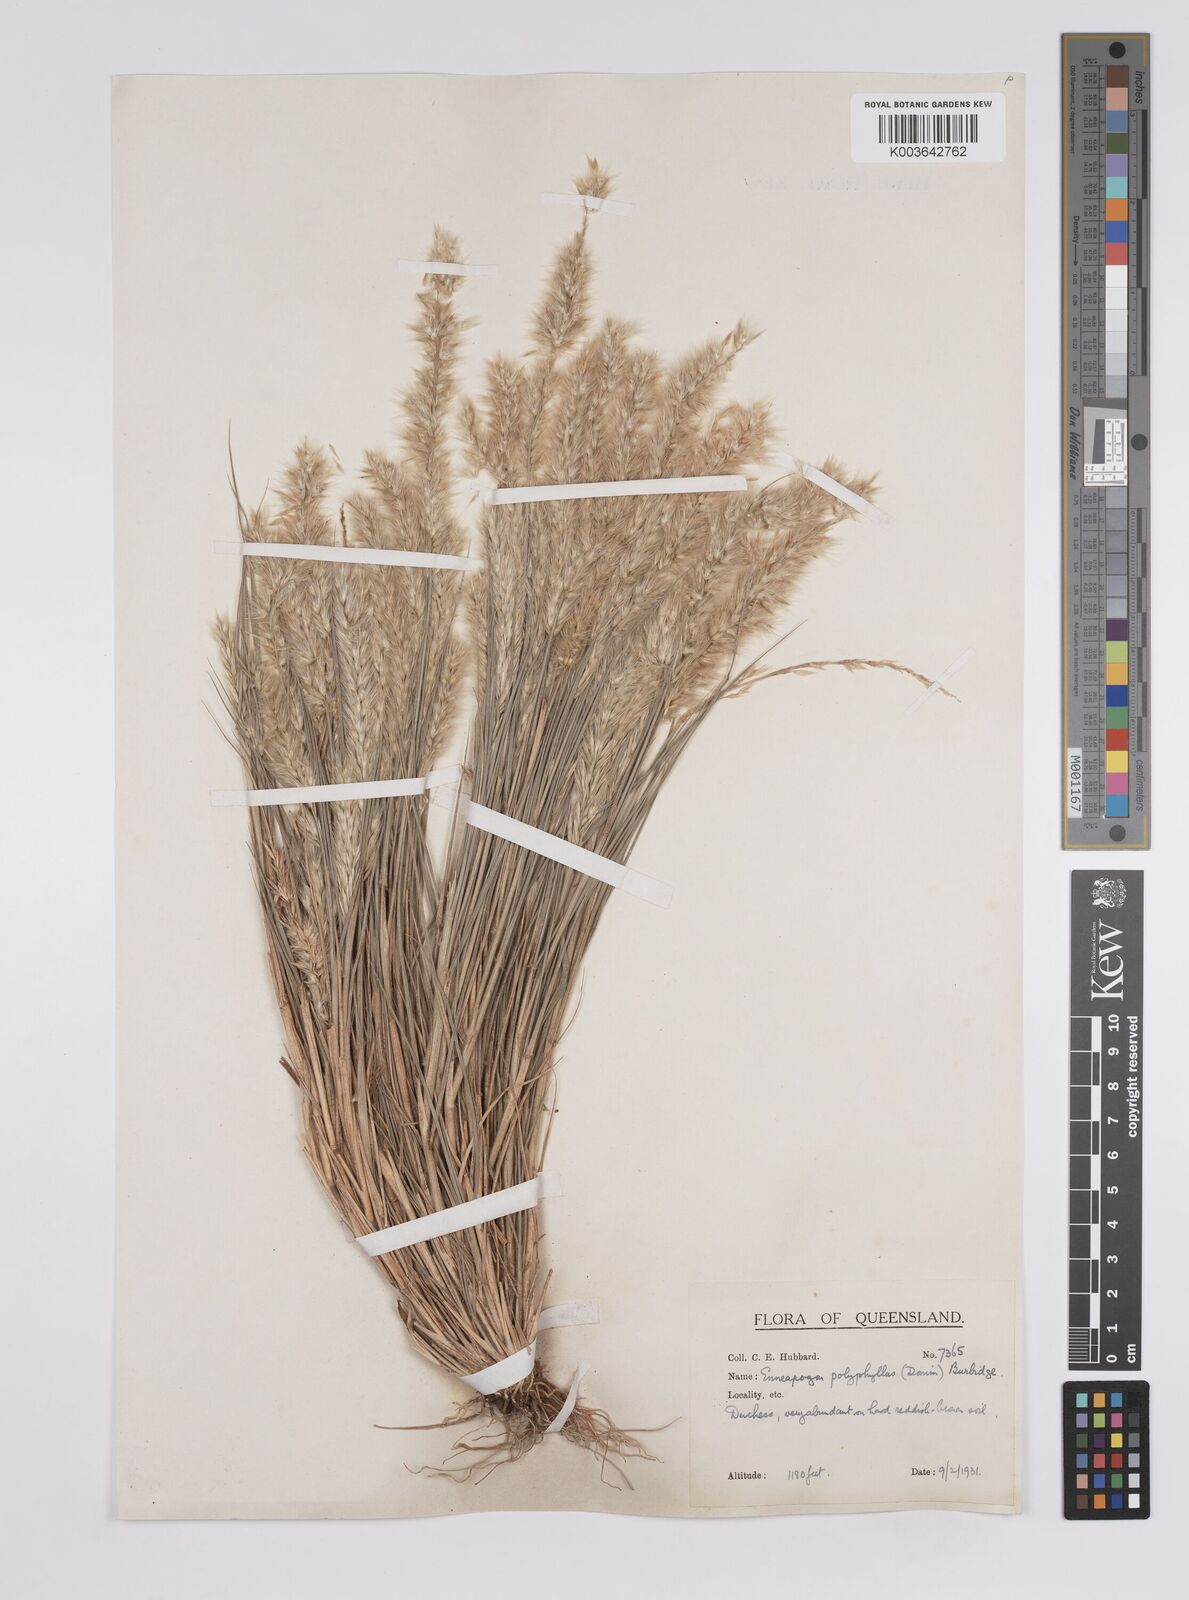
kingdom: Plantae
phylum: Tracheophyta
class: Liliopsida
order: Poales
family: Poaceae
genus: Enneapogon
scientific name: Enneapogon polyphyllus
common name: Leafy nineawn
